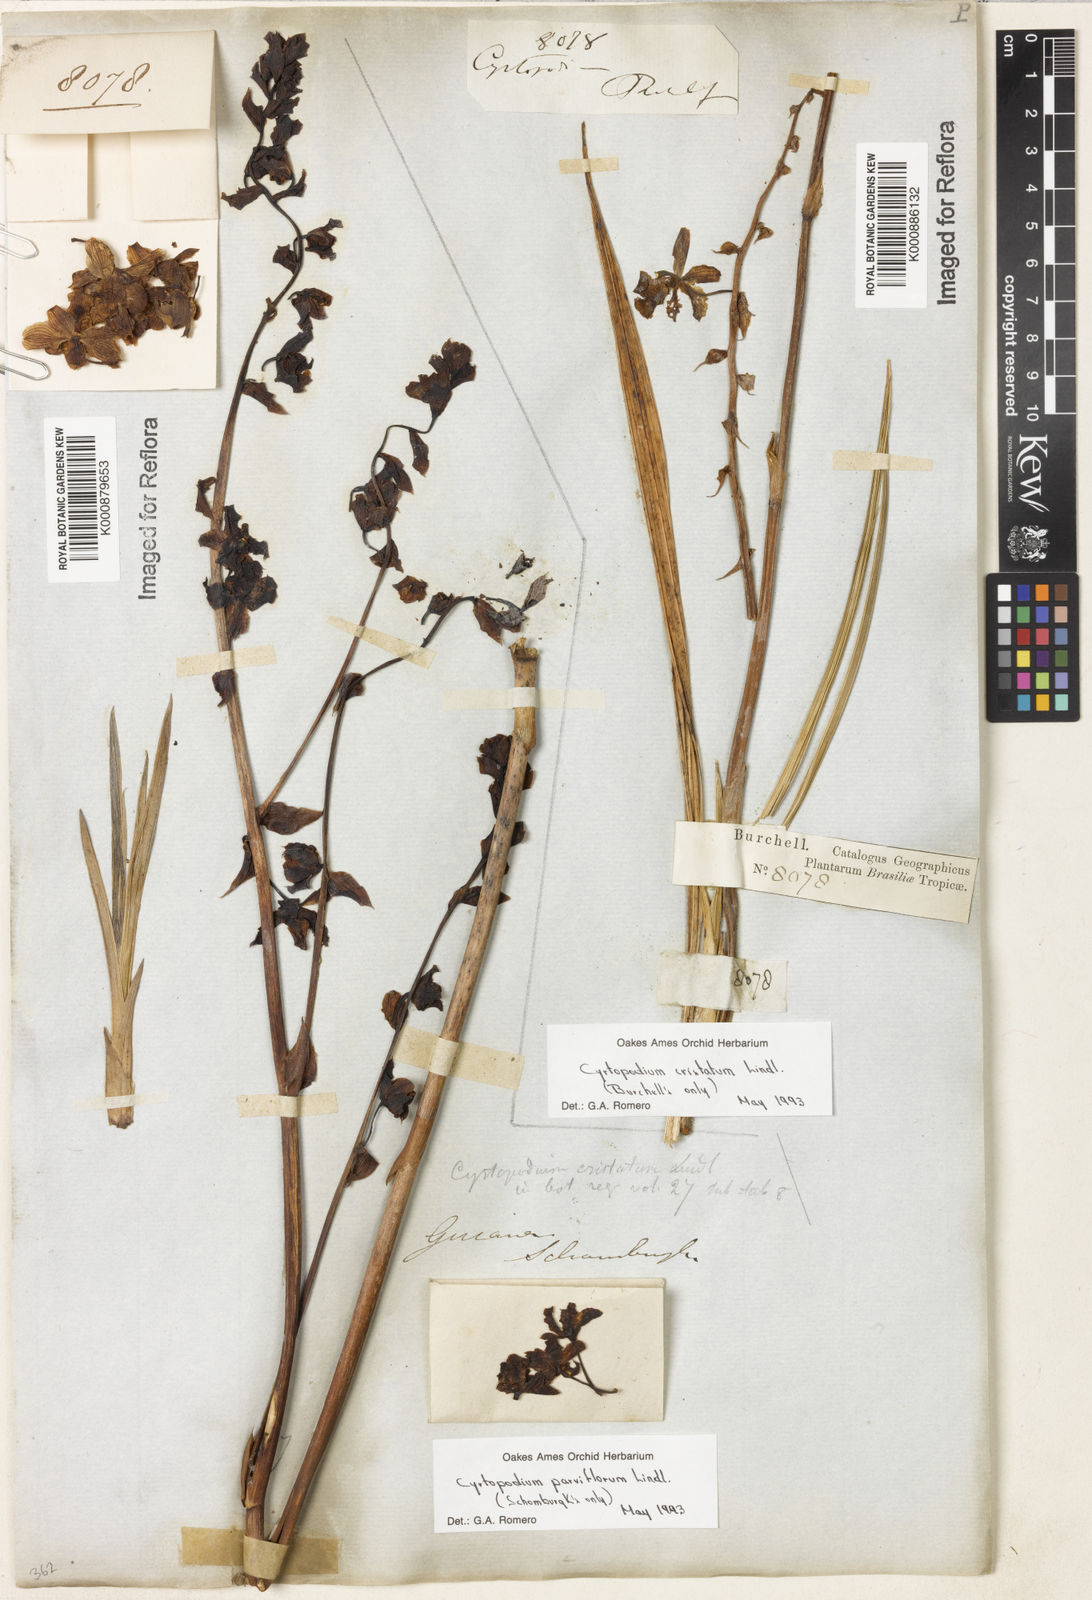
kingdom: Plantae
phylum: Tracheophyta
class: Liliopsida
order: Asparagales
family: Orchidaceae
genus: Cyrtopodium
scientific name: Cyrtopodium parviflorum
